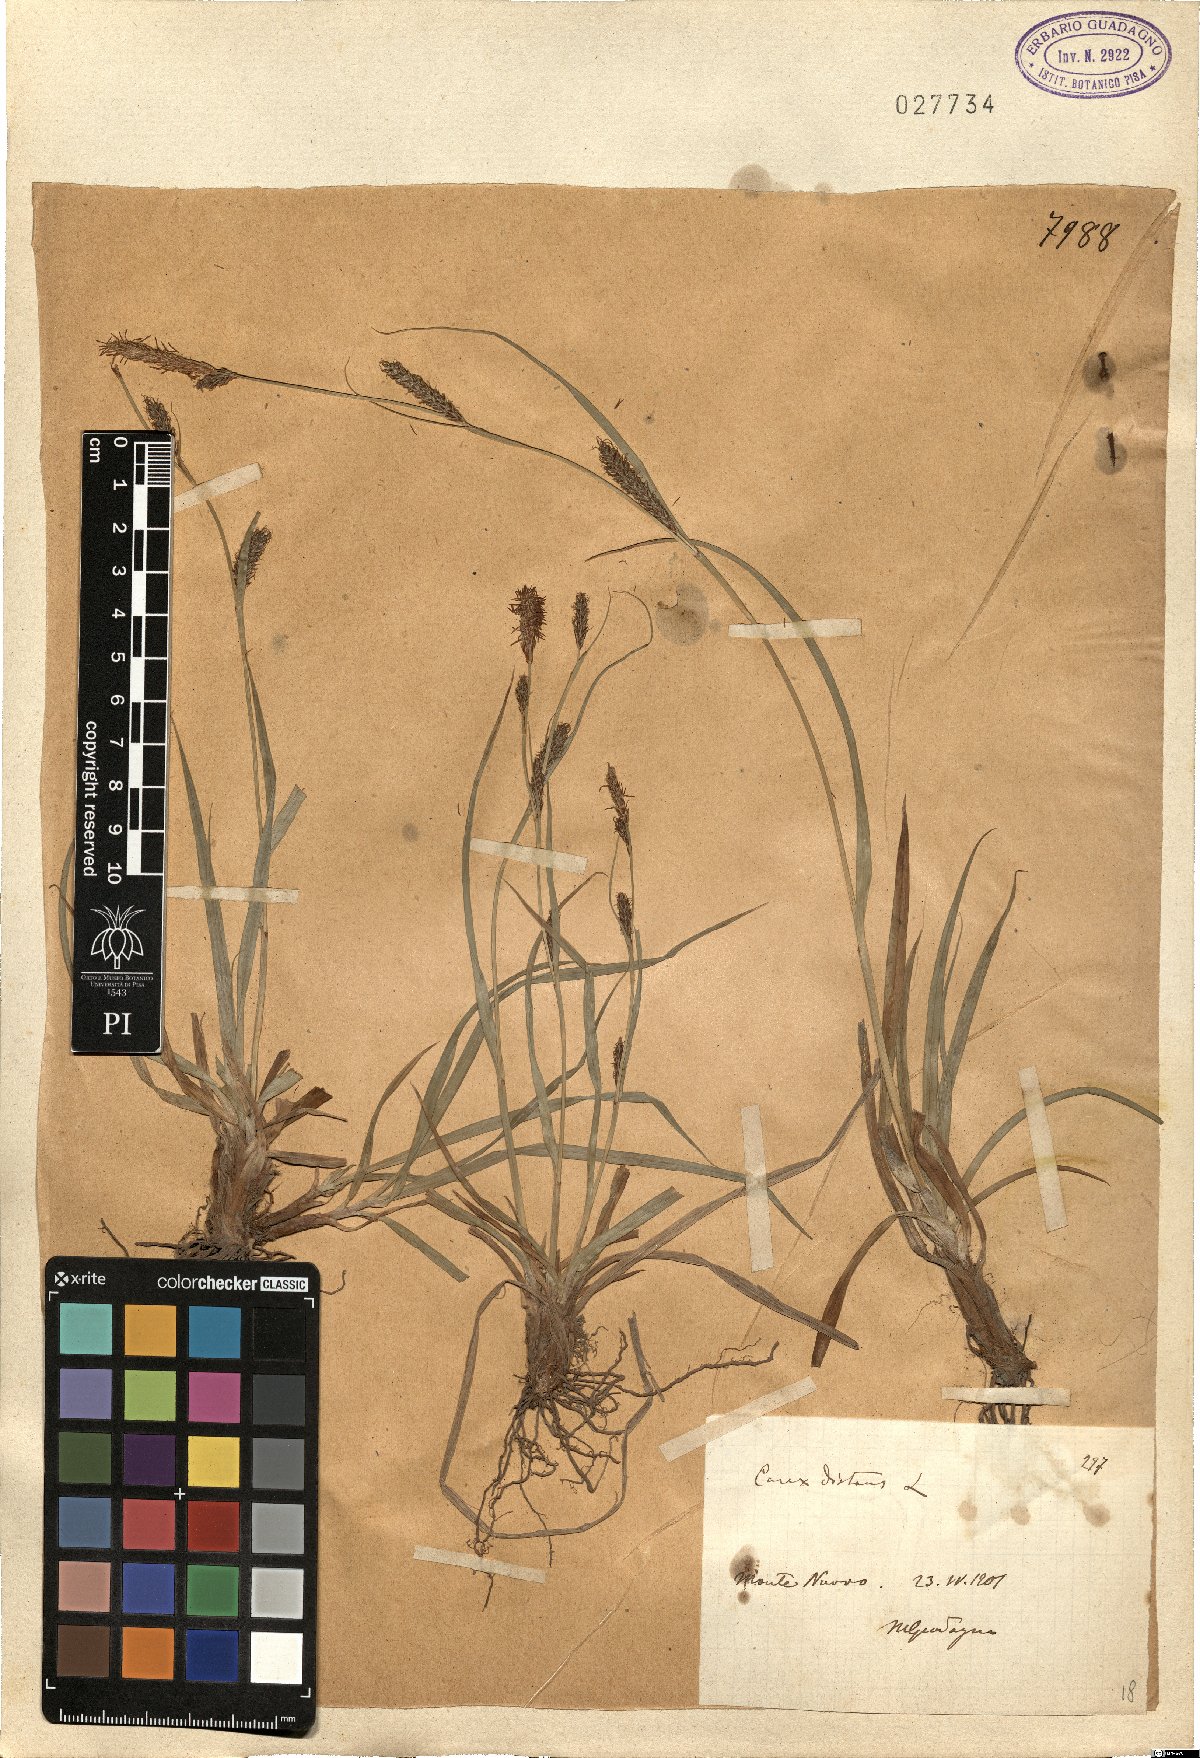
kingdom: Plantae
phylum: Tracheophyta
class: Liliopsida
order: Poales
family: Cyperaceae
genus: Carex
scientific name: Carex distans
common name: Distant sedge
